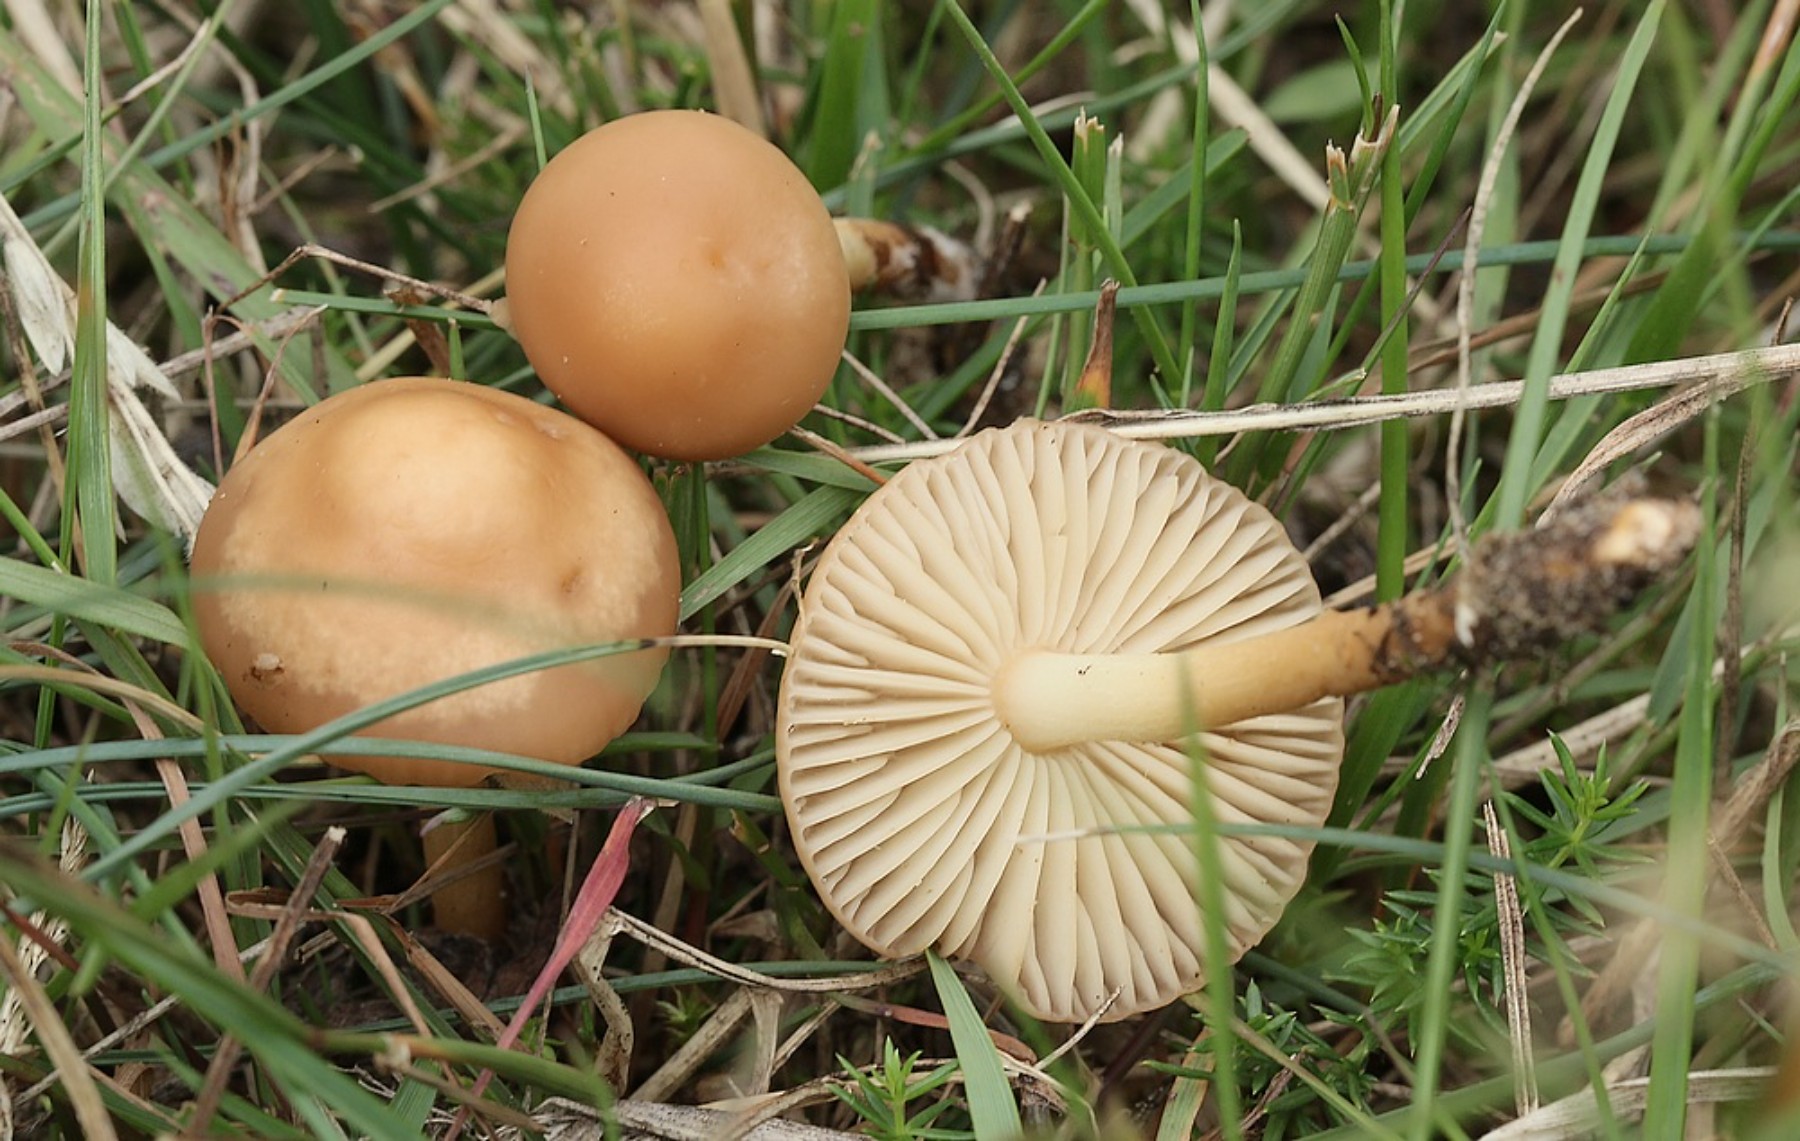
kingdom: Fungi
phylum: Basidiomycota
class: Agaricomycetes
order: Agaricales
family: Marasmiaceae
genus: Marasmius
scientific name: Marasmius oreades
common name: elledans-bruskhat
